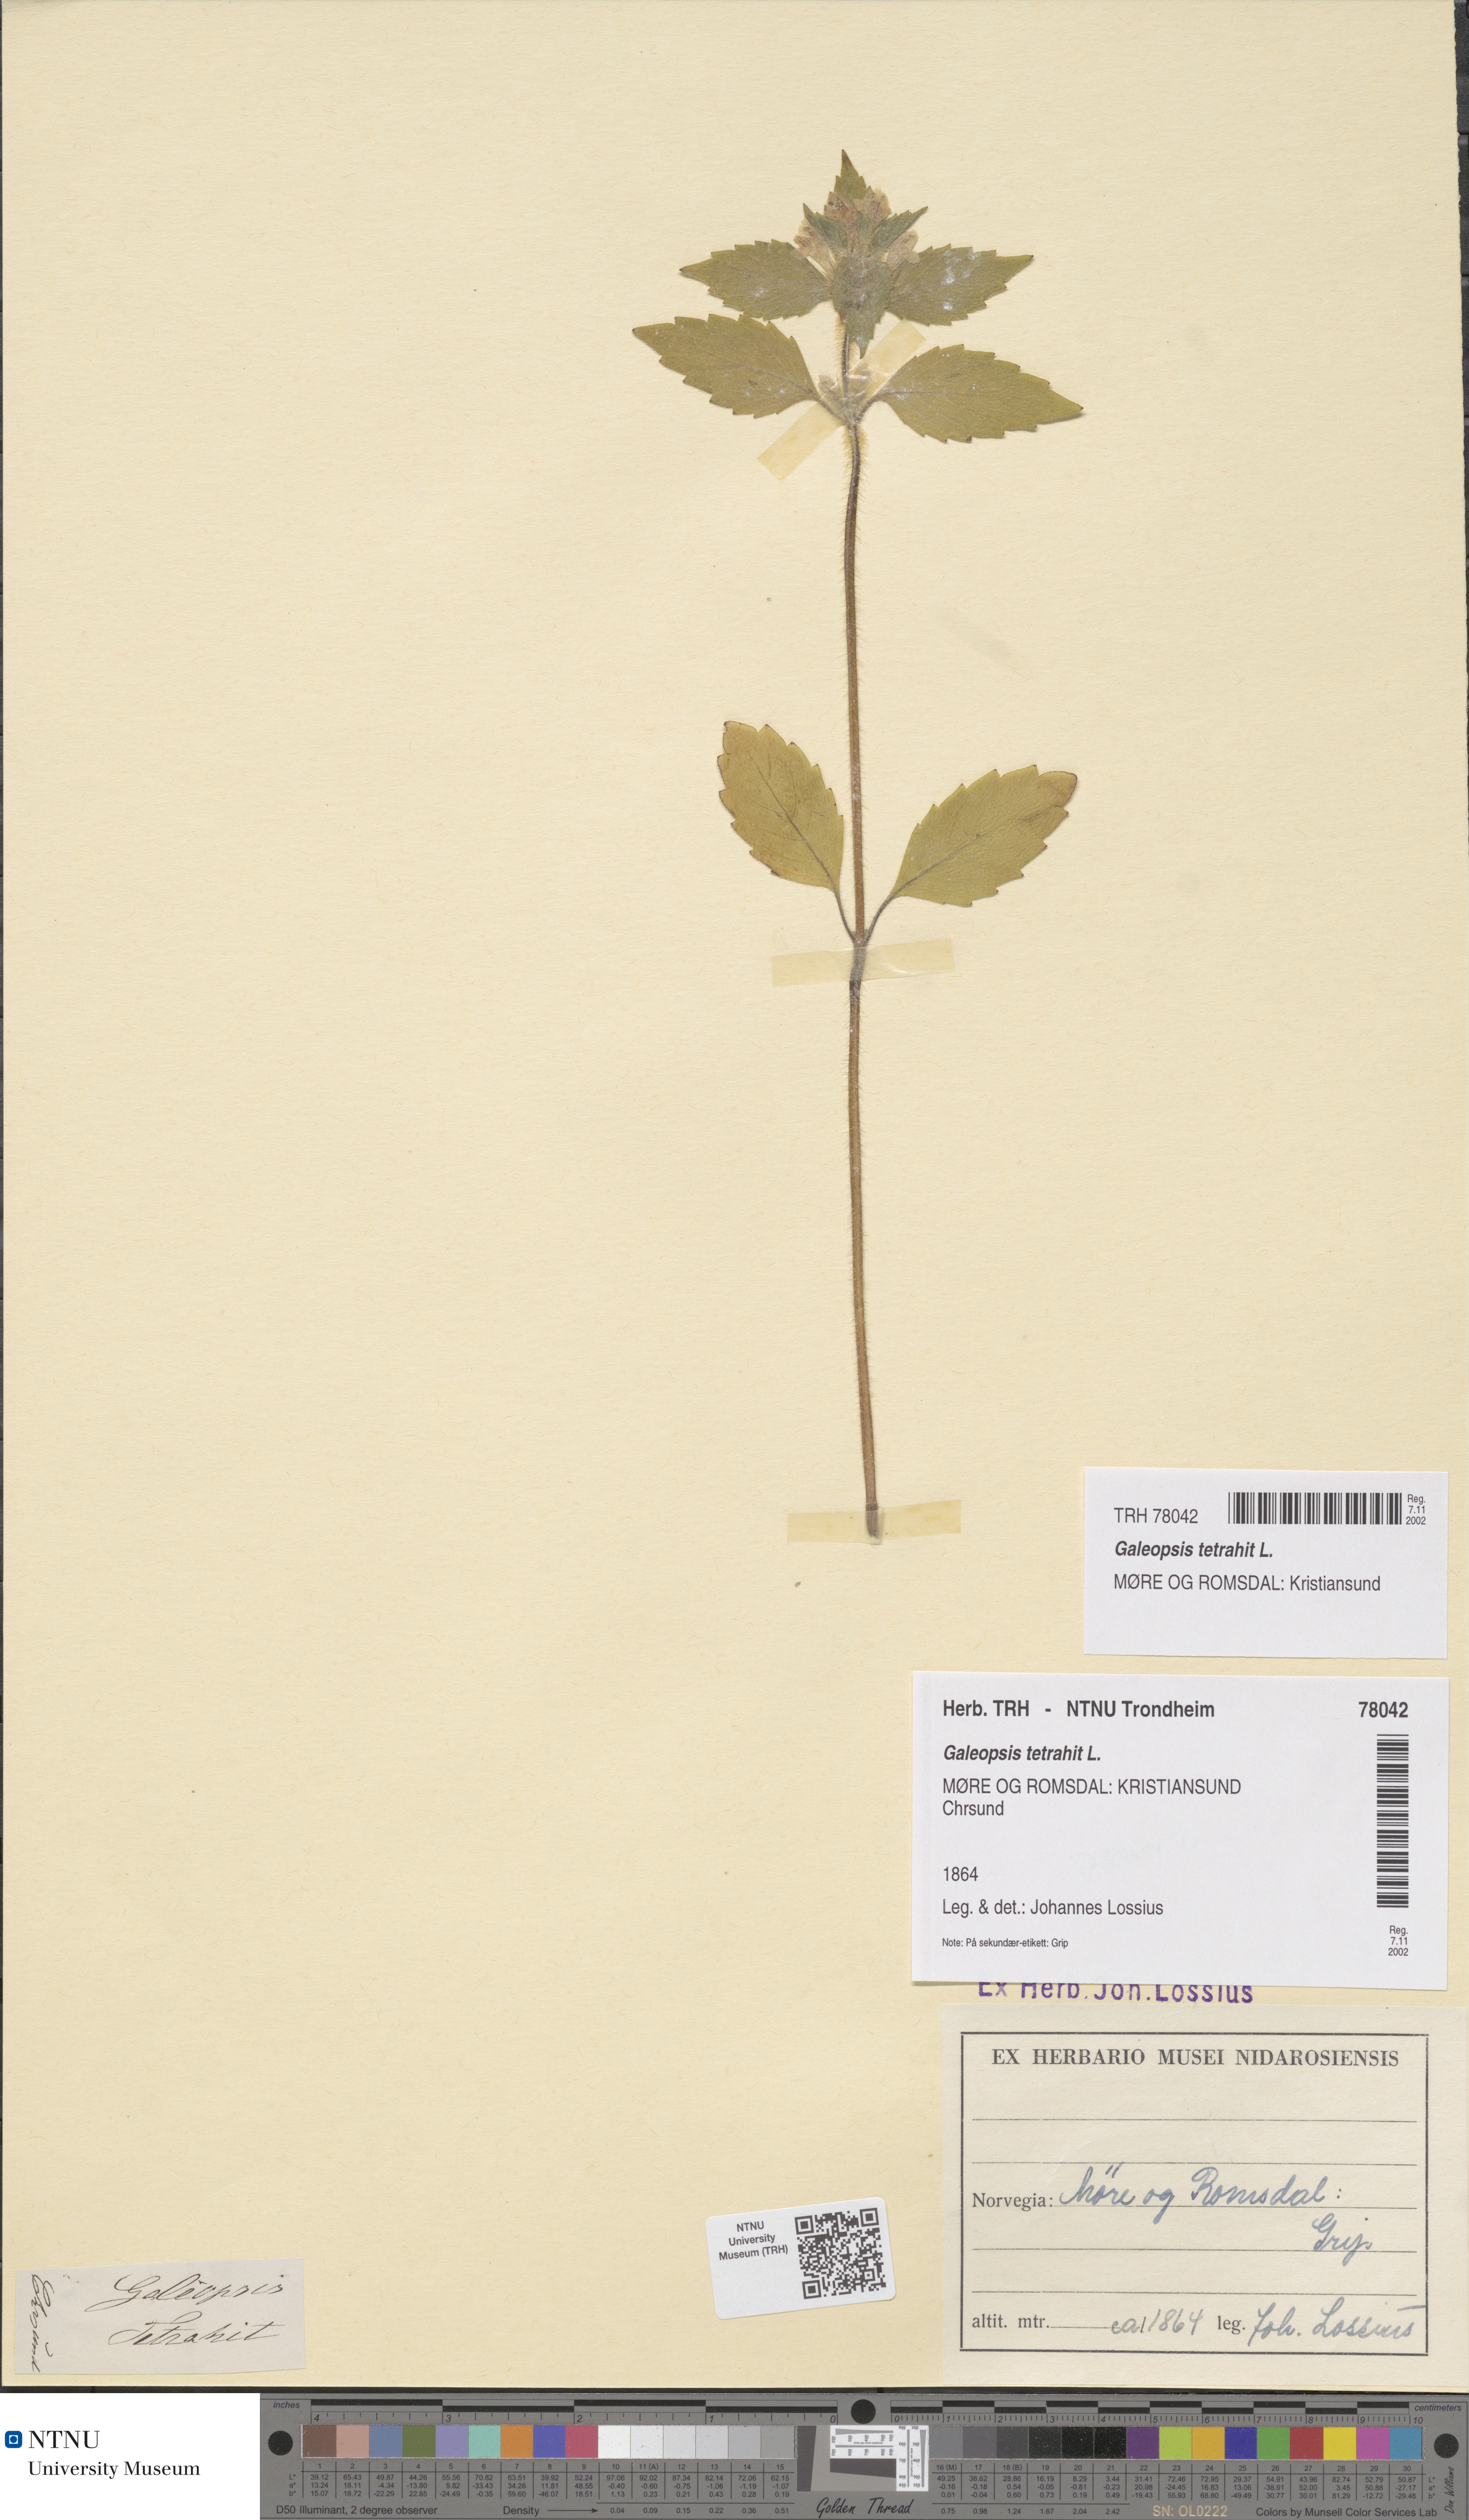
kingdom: Plantae
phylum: Tracheophyta
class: Magnoliopsida
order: Lamiales
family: Lamiaceae
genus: Galeopsis
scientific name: Galeopsis tetrahit
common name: Common hemp-nettle
